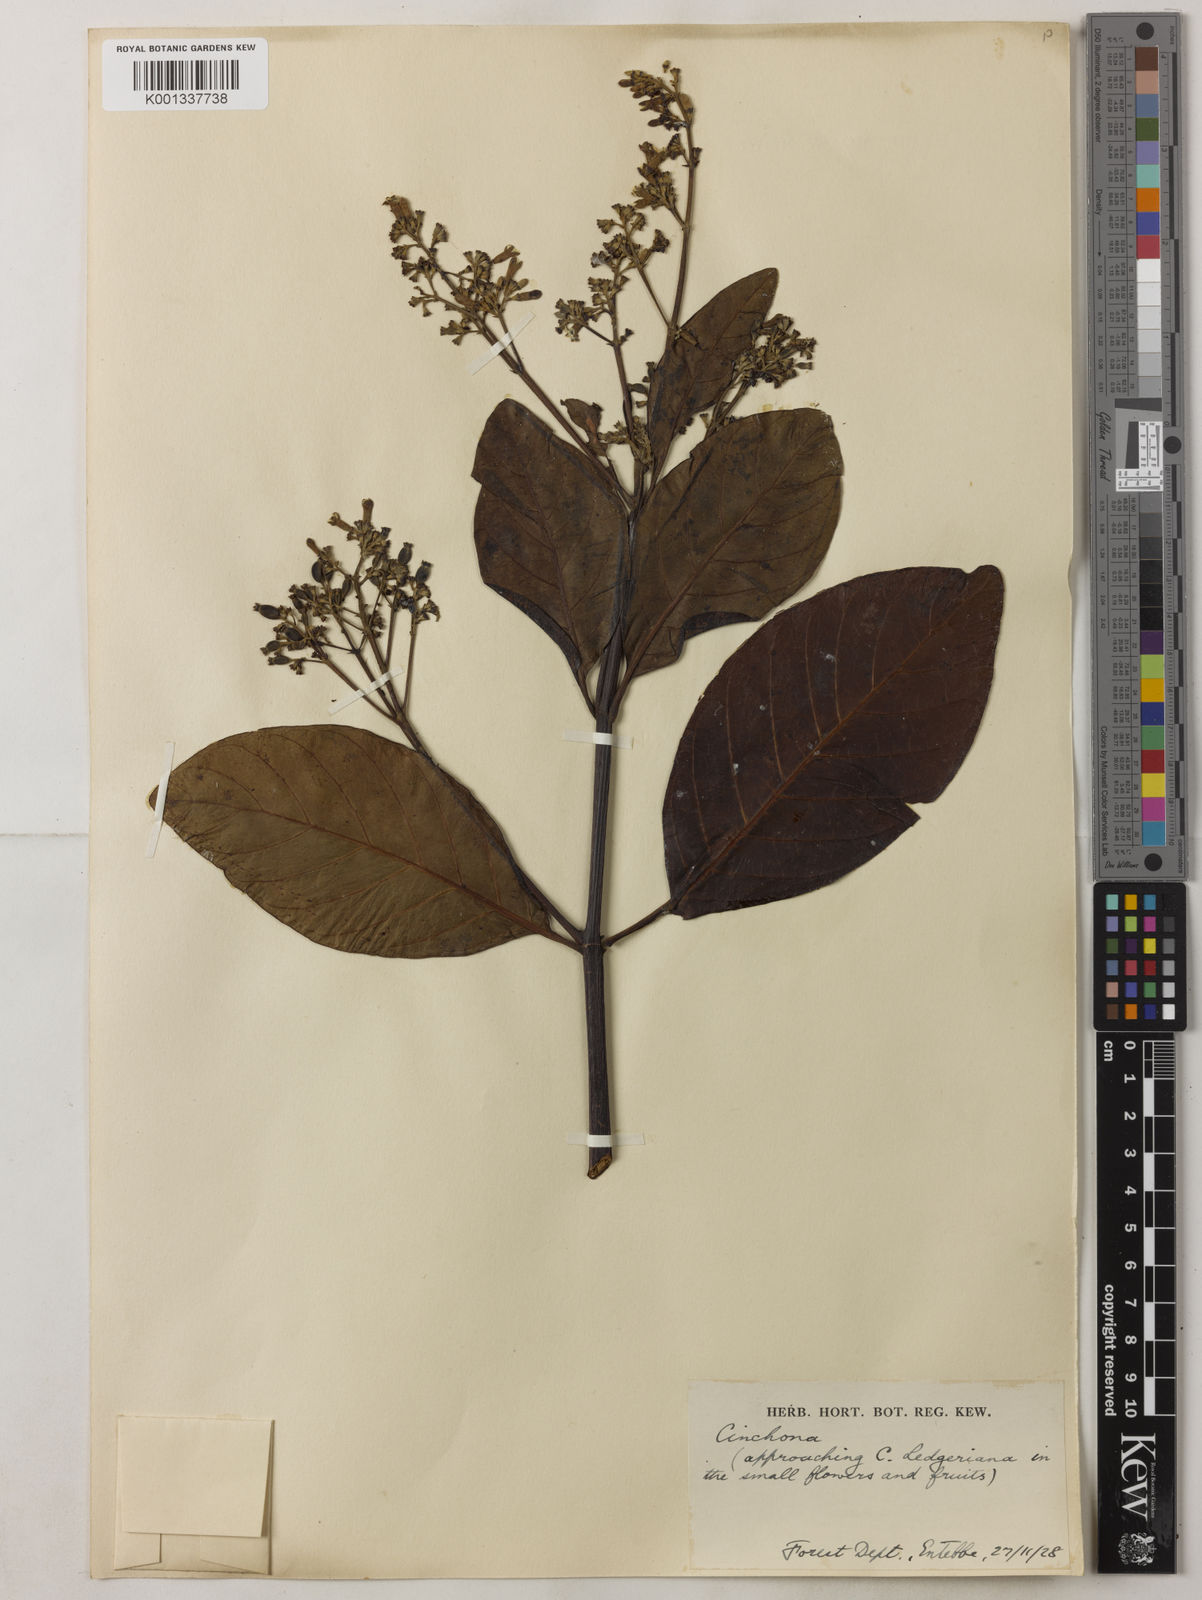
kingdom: Plantae
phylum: Tracheophyta
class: Magnoliopsida
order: Gentianales
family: Rubiaceae
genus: Cinchona
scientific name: Cinchona
